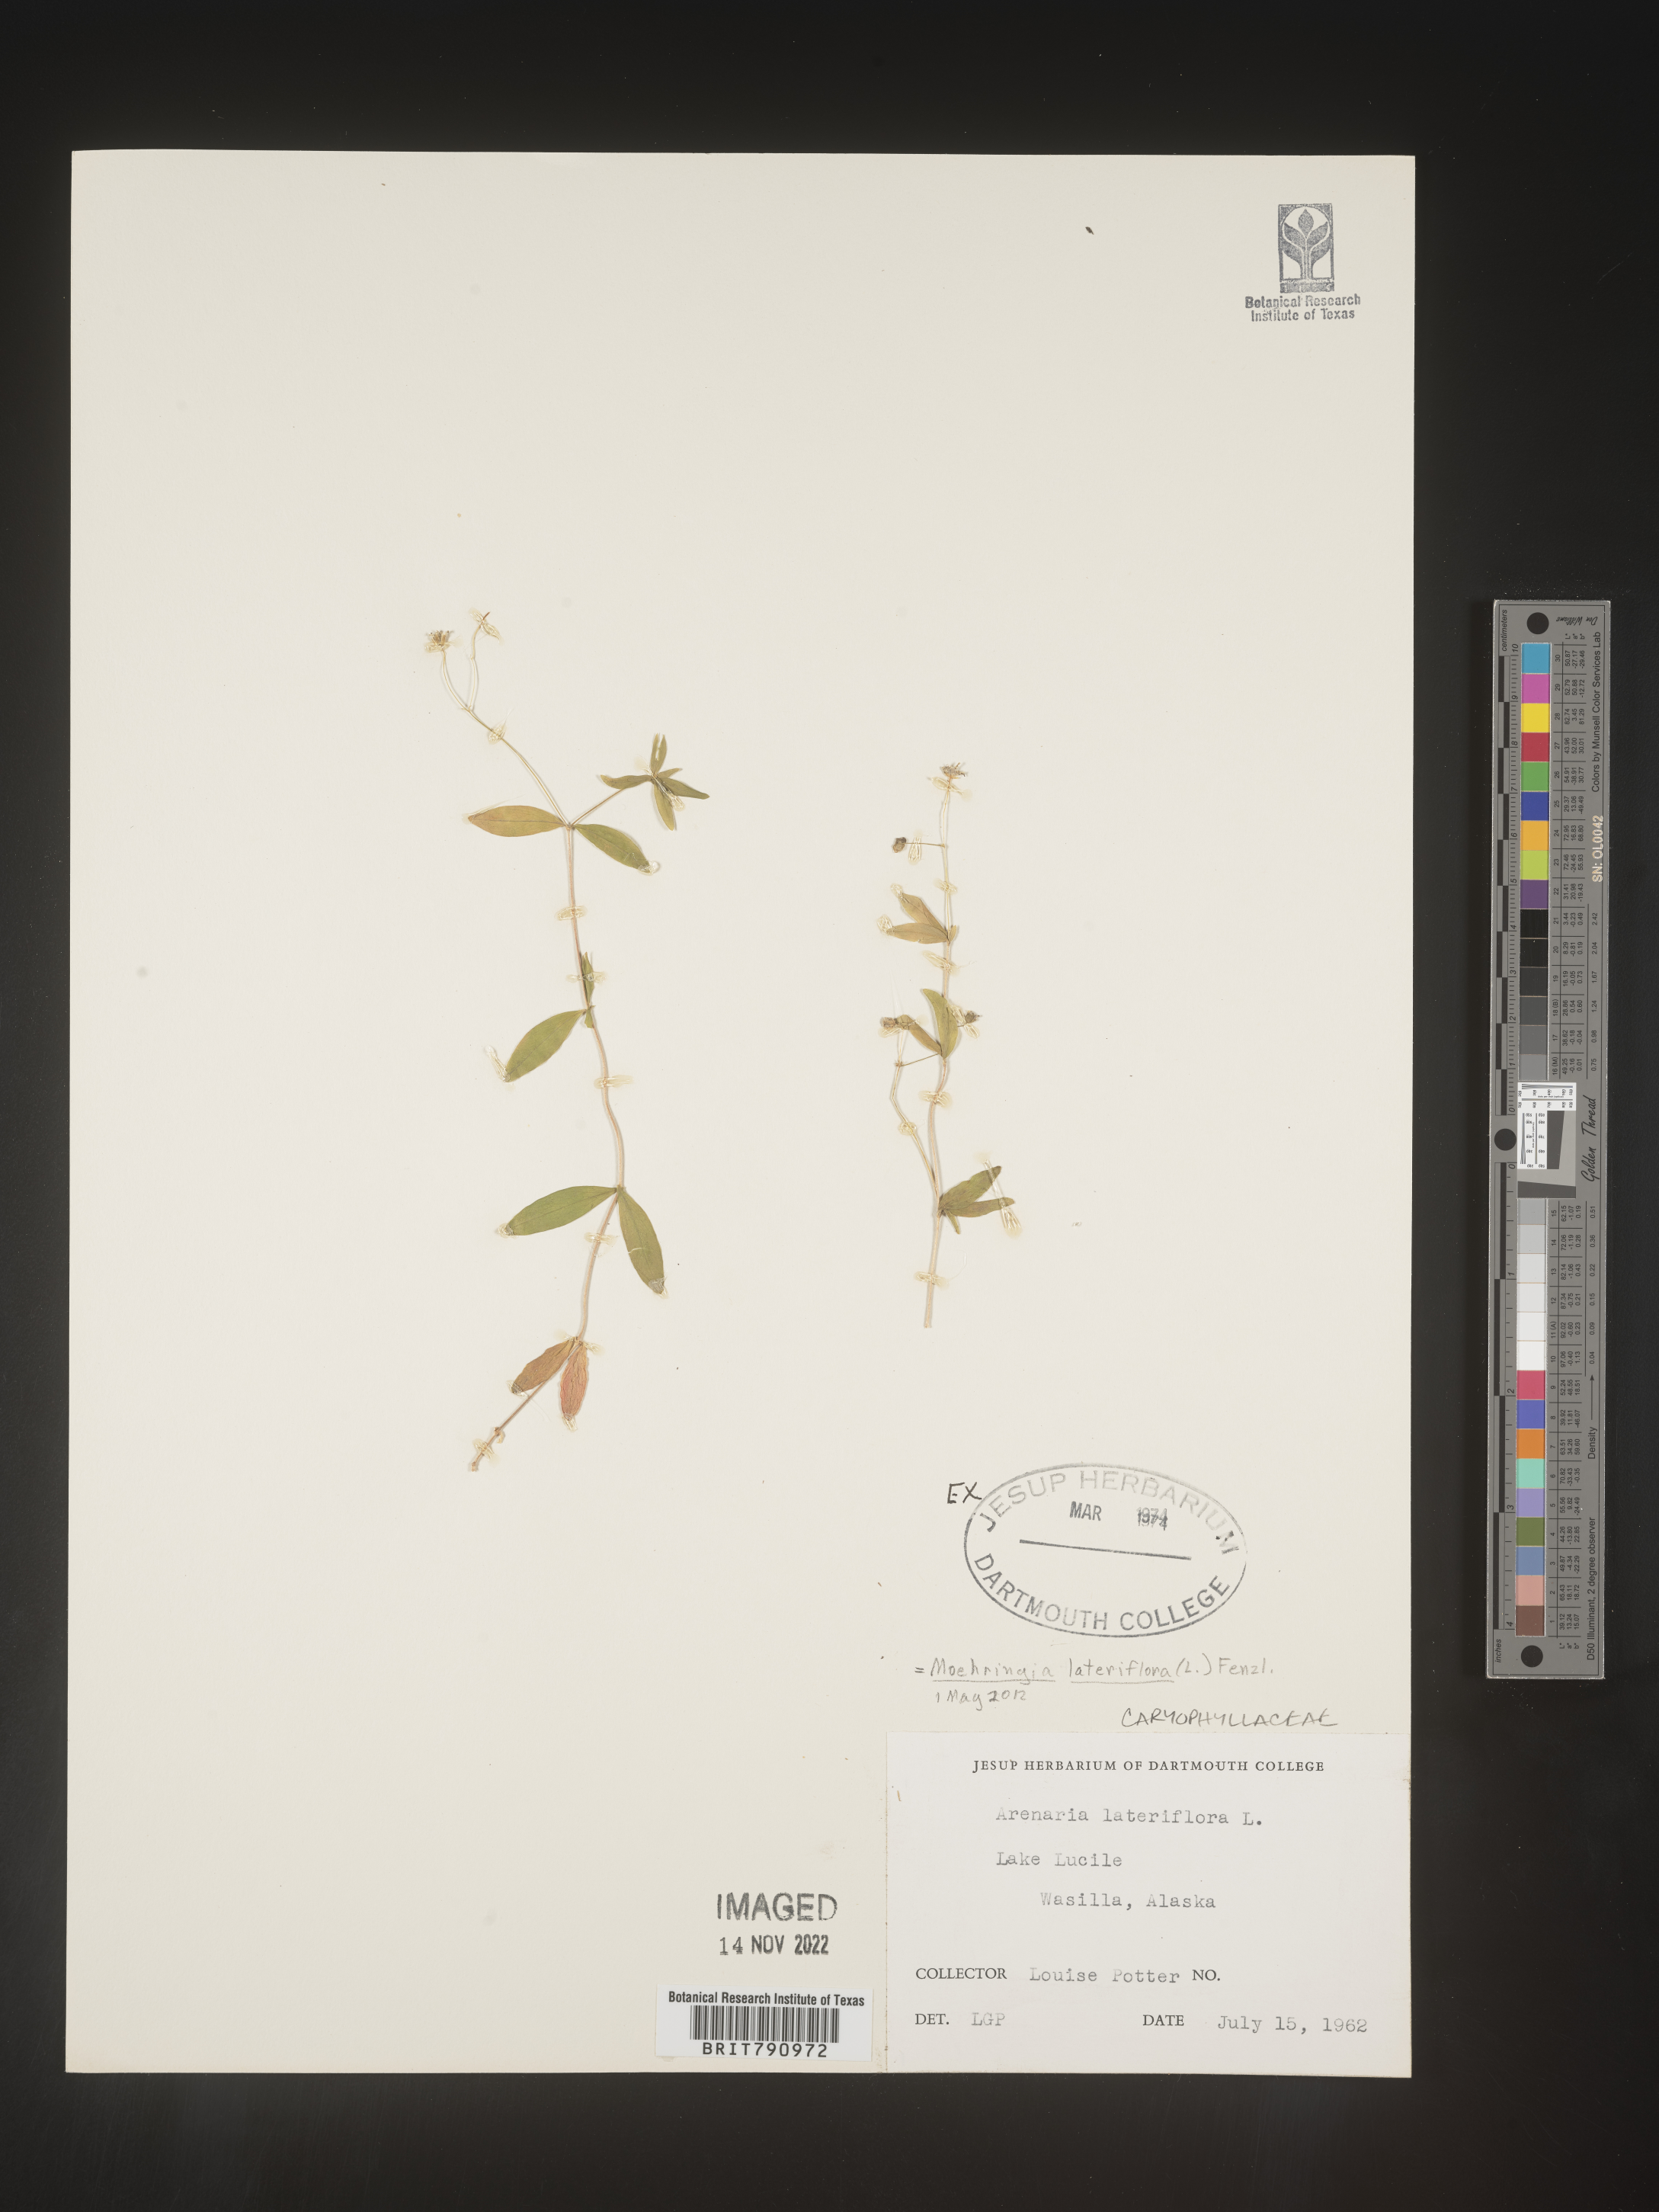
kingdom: Plantae
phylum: Tracheophyta
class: Magnoliopsida
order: Caryophyllales
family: Caryophyllaceae
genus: Moehringia
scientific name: Moehringia
